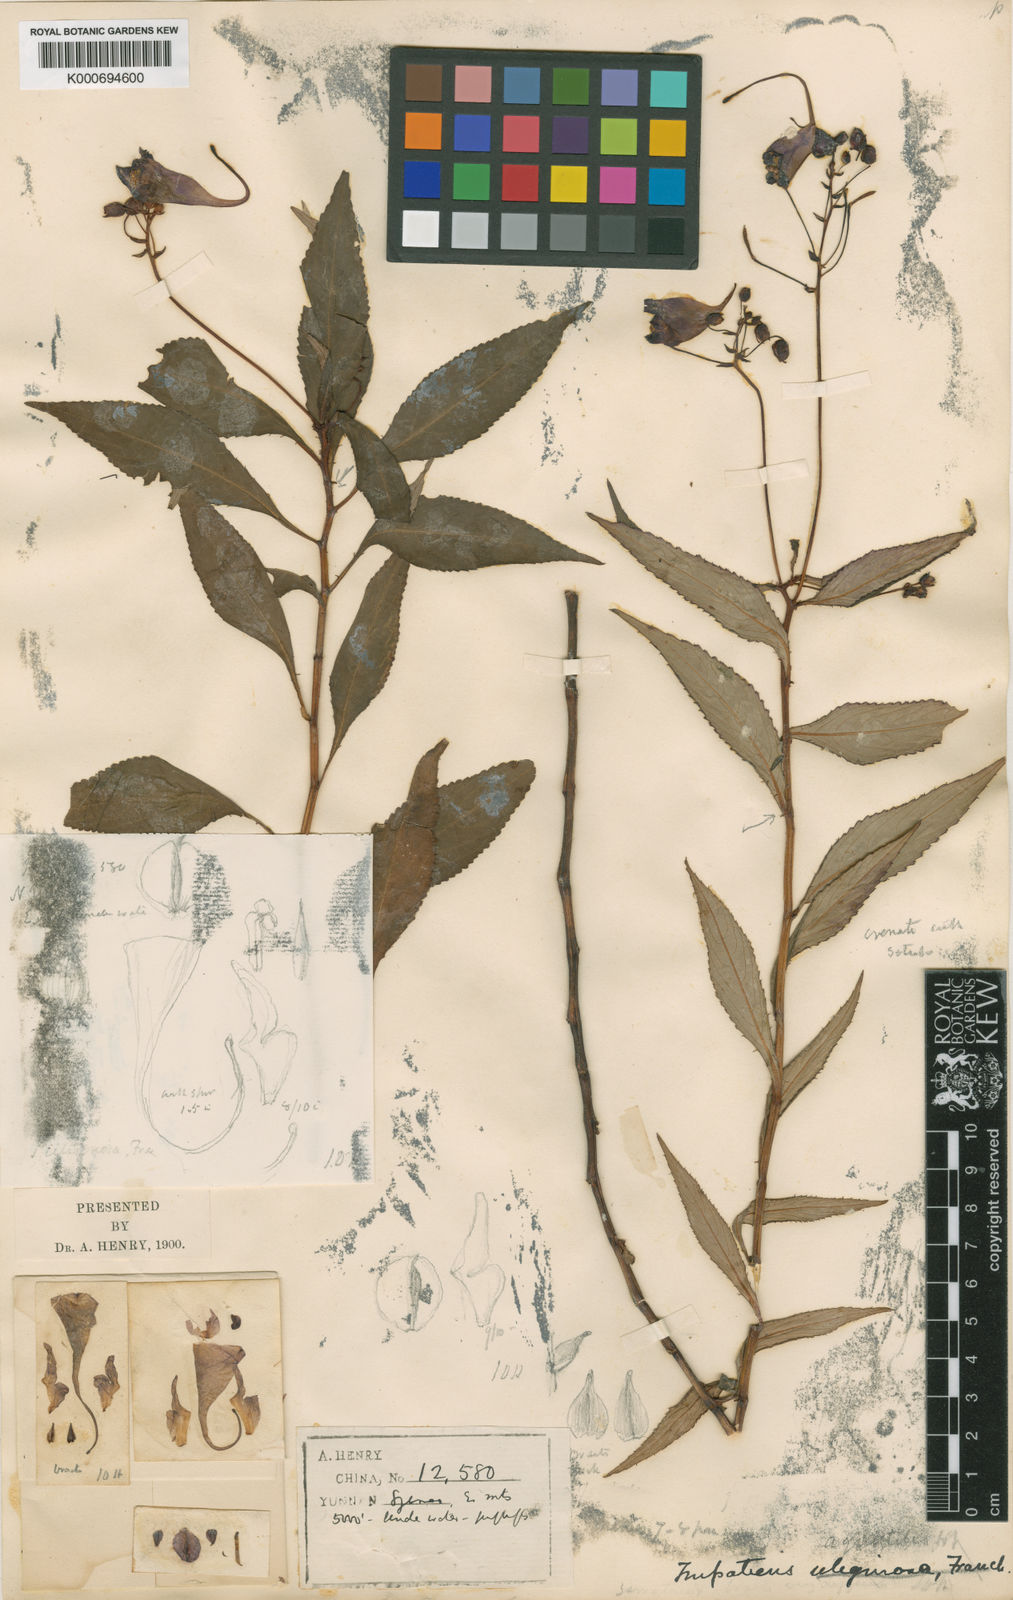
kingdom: Plantae
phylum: Tracheophyta
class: Magnoliopsida
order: Ericales
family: Balsaminaceae
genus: Impatiens
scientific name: Impatiens aquatilis
